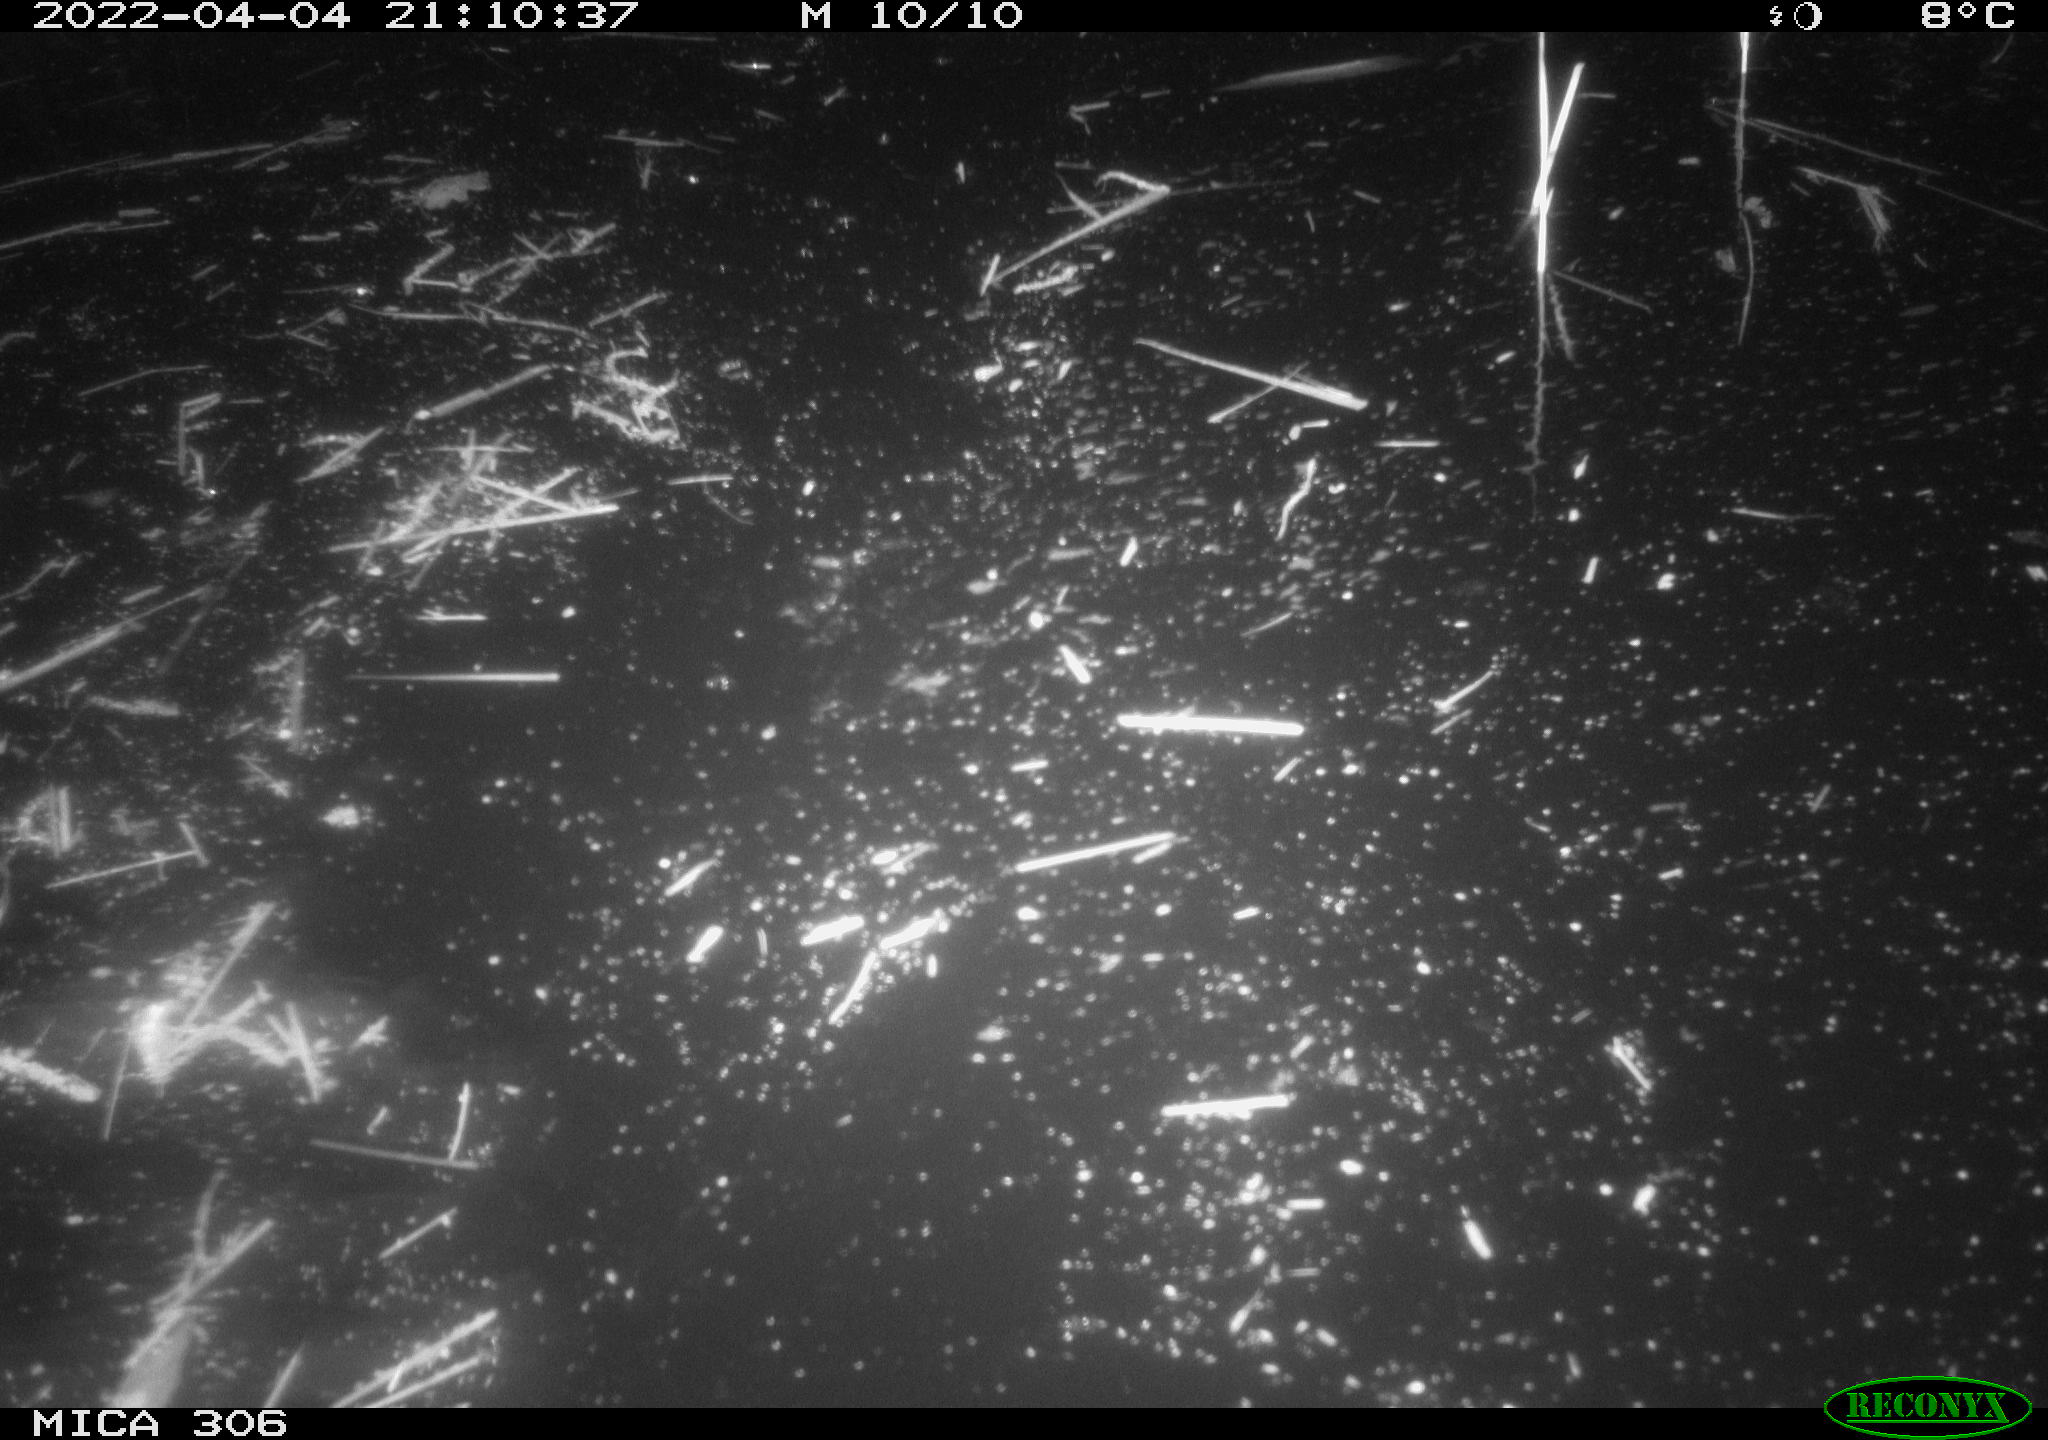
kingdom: Animalia
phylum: Chordata
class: Mammalia
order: Rodentia
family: Cricetidae
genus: Ondatra
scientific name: Ondatra zibethicus
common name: Muskrat
